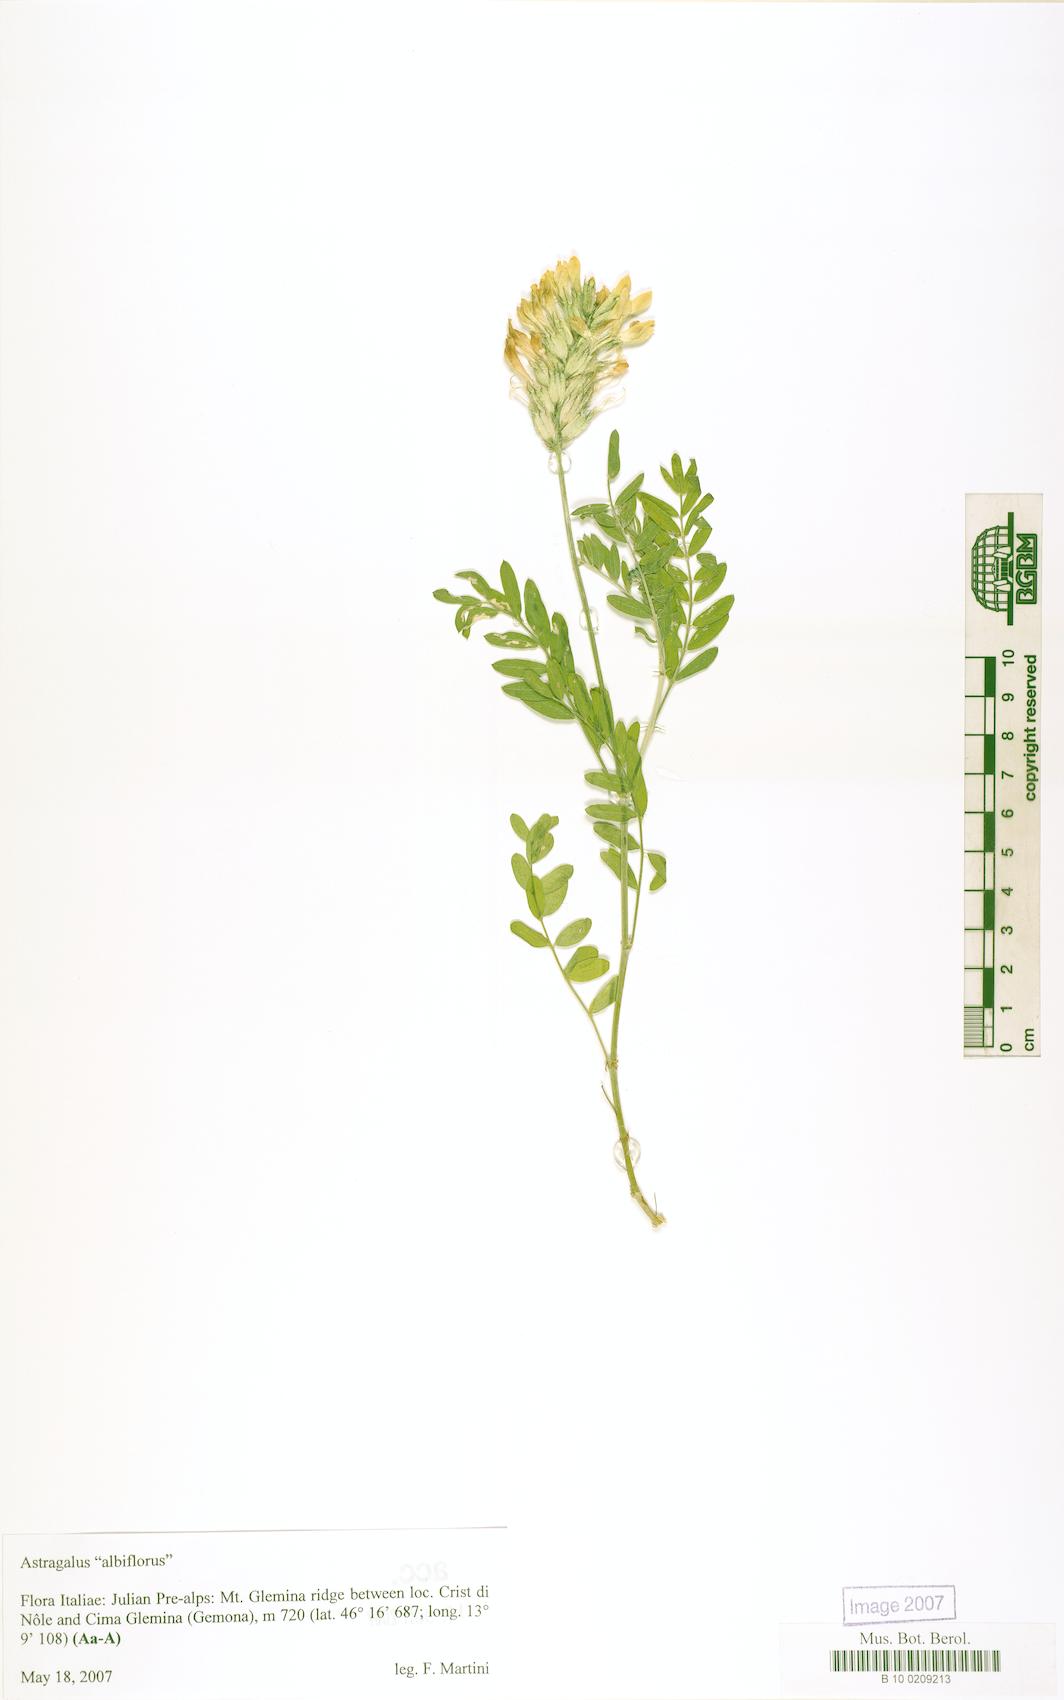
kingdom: Plantae
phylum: Tracheophyta
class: Magnoliopsida
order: Fabales
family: Fabaceae
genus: Oxytropis
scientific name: Oxytropis
